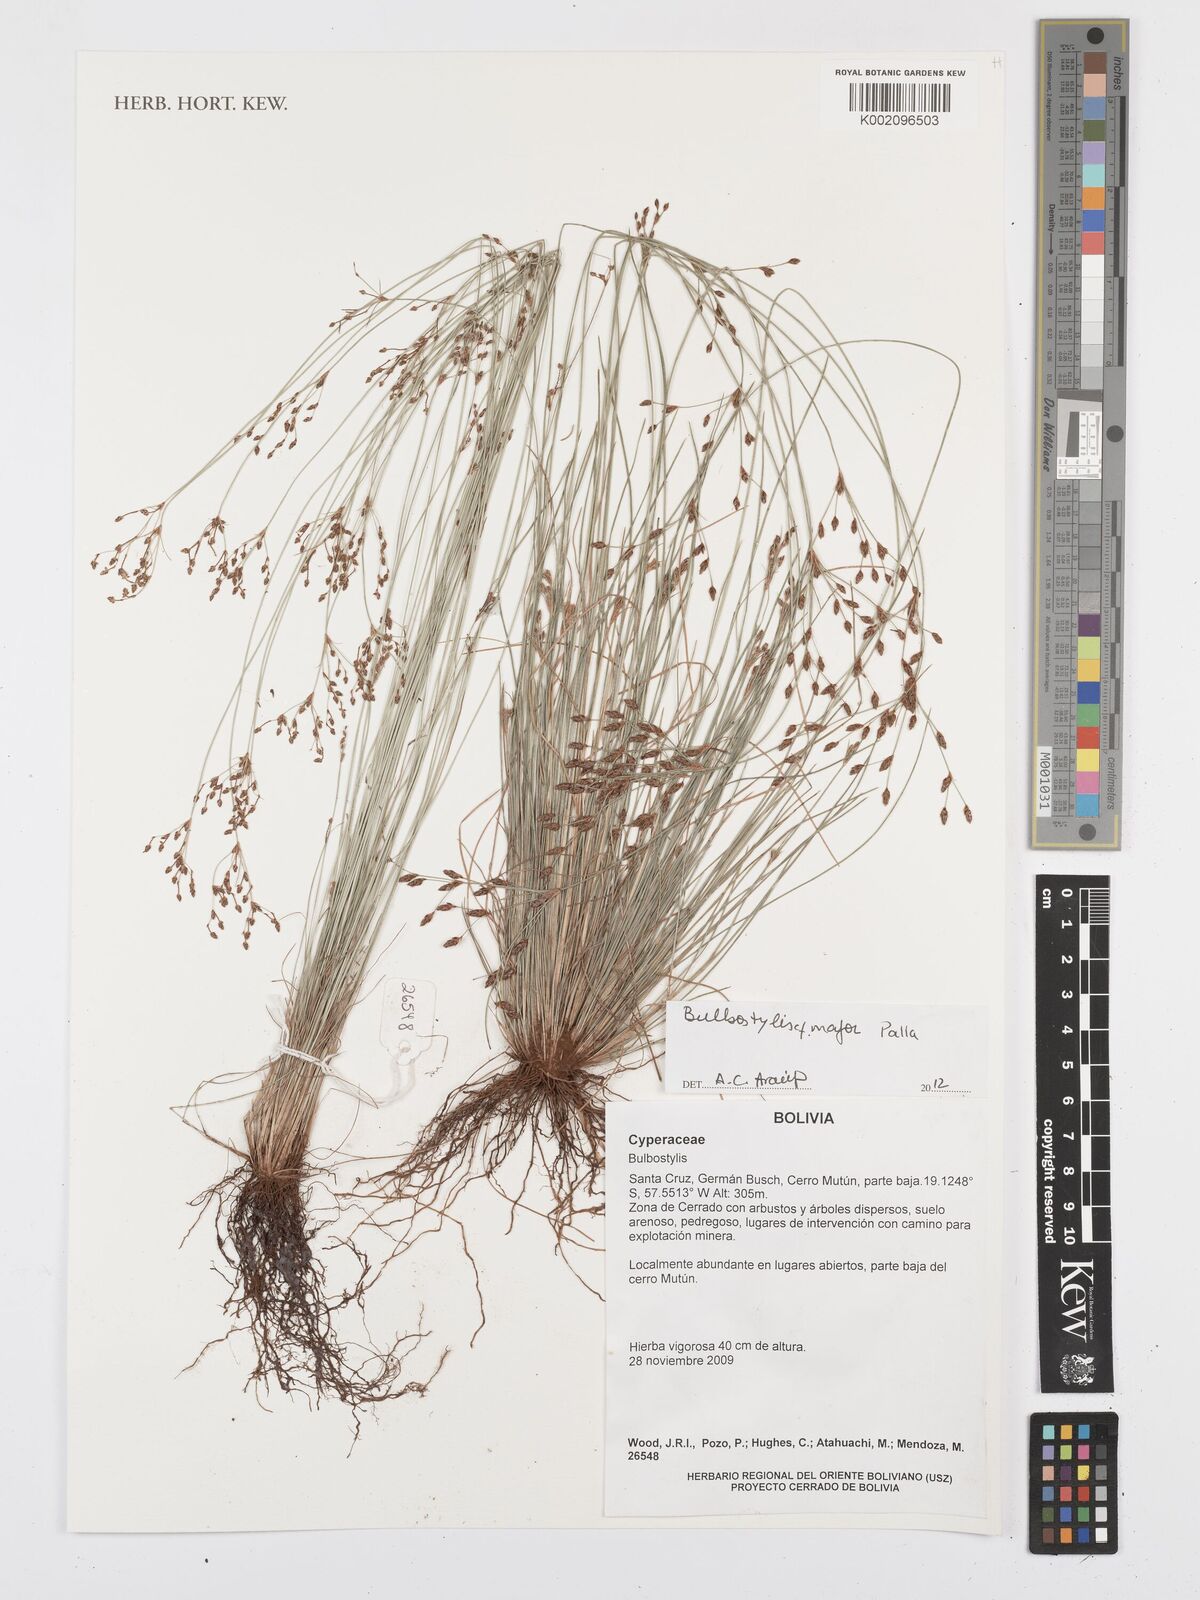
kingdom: Plantae
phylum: Tracheophyta
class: Liliopsida
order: Poales
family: Cyperaceae
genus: Bulbostylis
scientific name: Bulbostylis major
